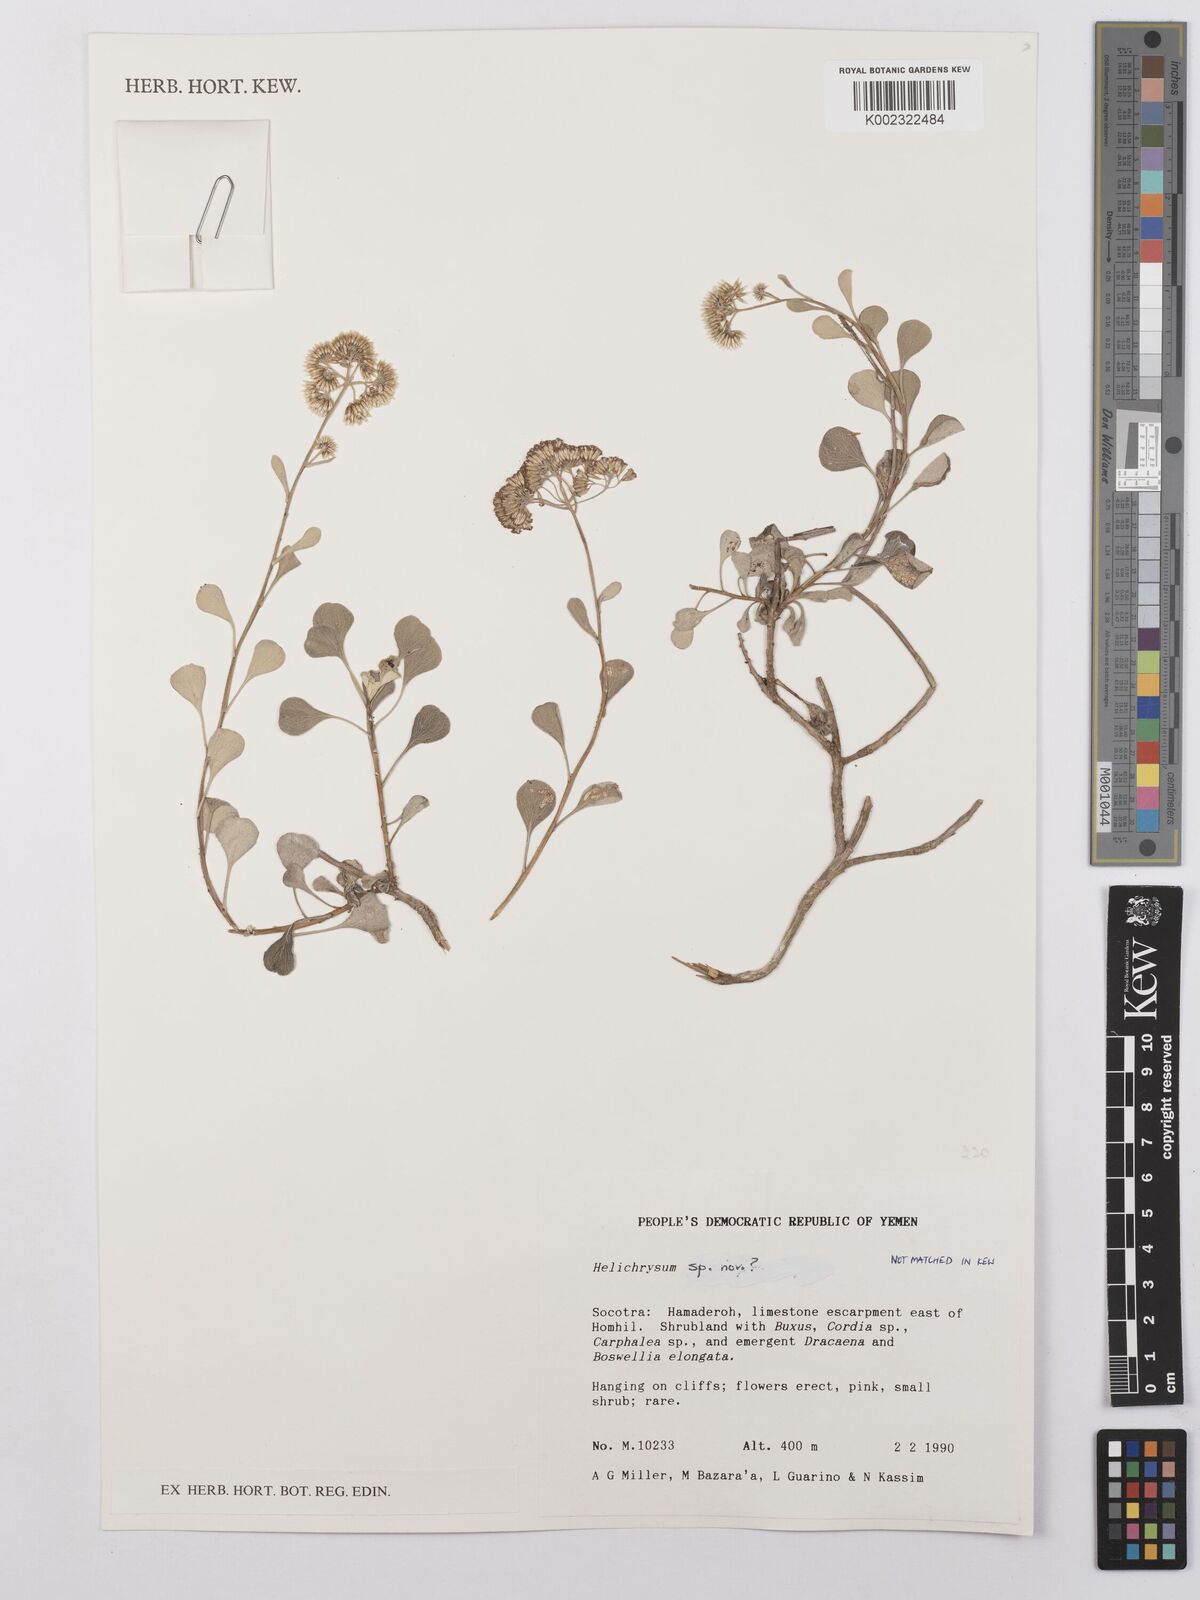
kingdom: Plantae
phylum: Tracheophyta
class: Magnoliopsida
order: Asterales
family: Asteraceae
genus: Helichrysum
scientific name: Helichrysum
